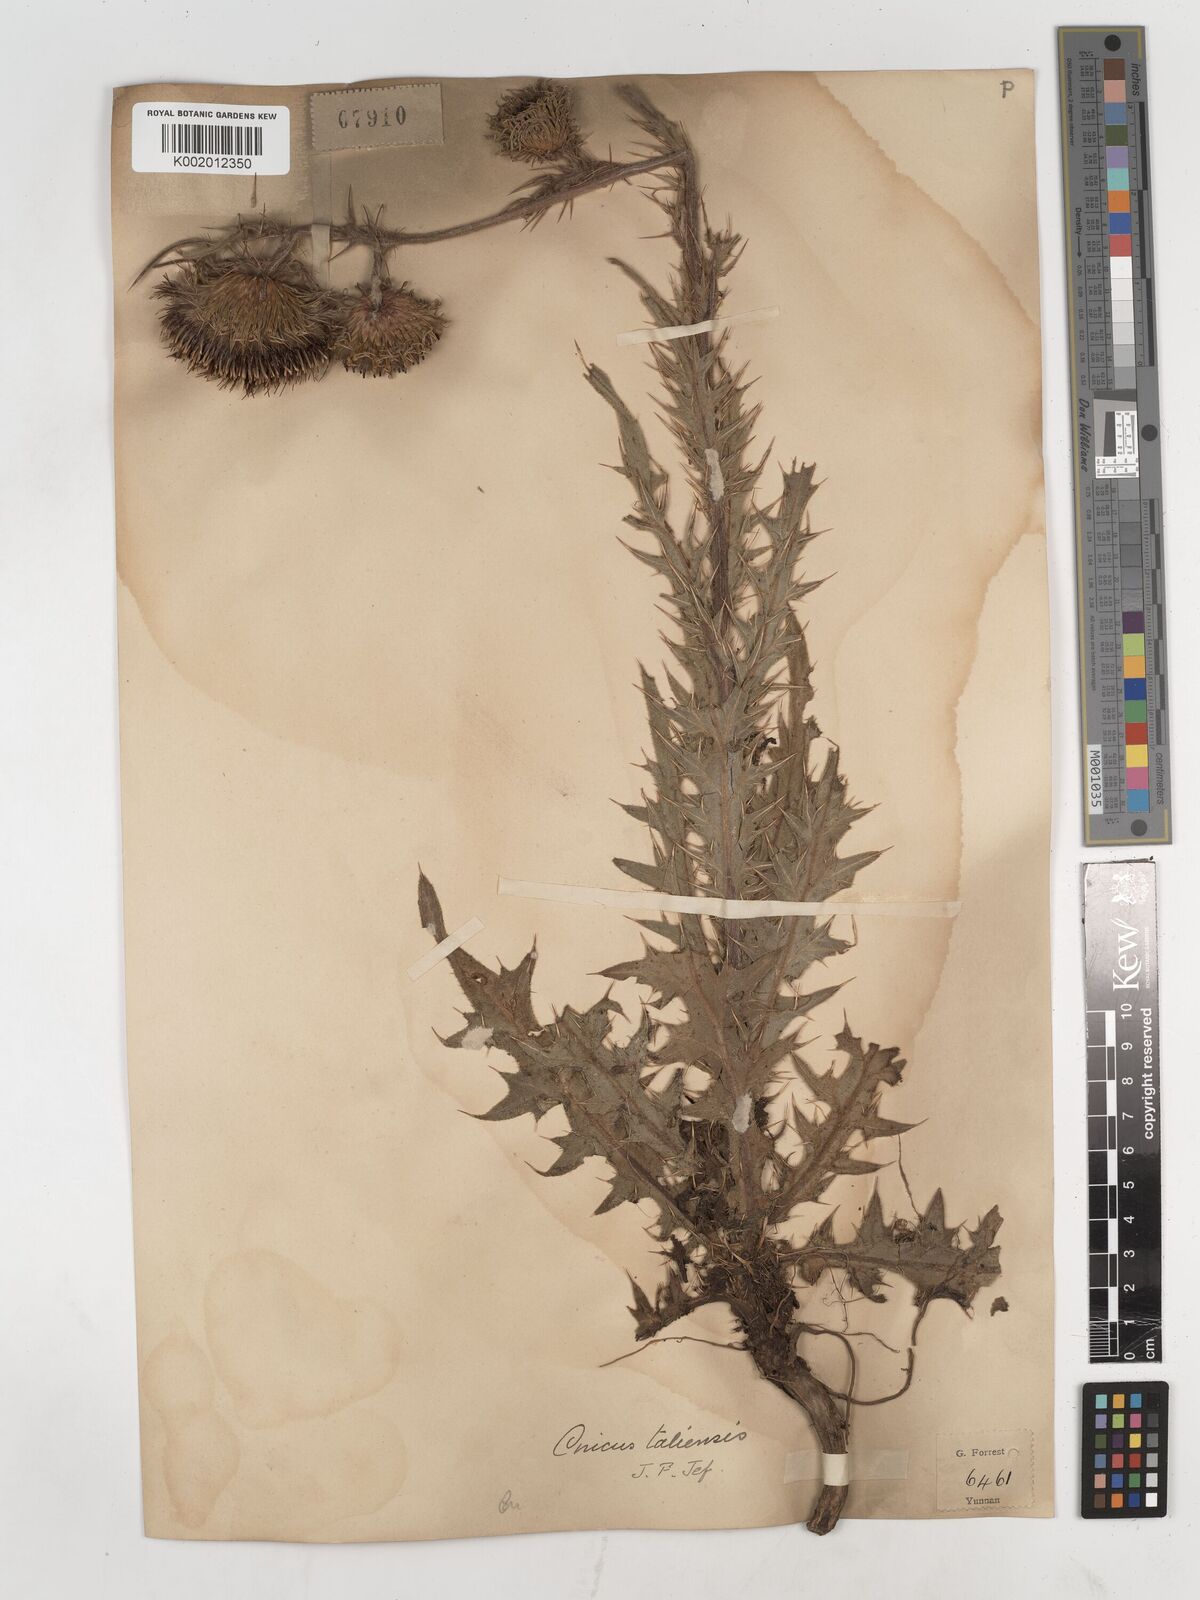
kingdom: Plantae
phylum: Tracheophyta
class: Magnoliopsida
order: Asterales
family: Asteraceae
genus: Lophiolepis
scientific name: Lophiolepis chlorolepis
